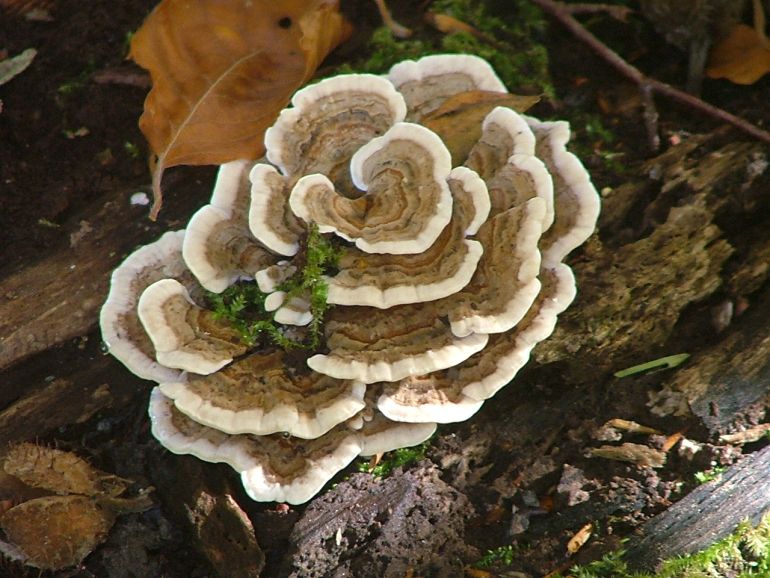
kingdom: Fungi
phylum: Basidiomycota
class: Agaricomycetes
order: Polyporales
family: Polyporaceae
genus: Trametes
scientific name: Trametes versicolor
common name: broget læderporesvamp
